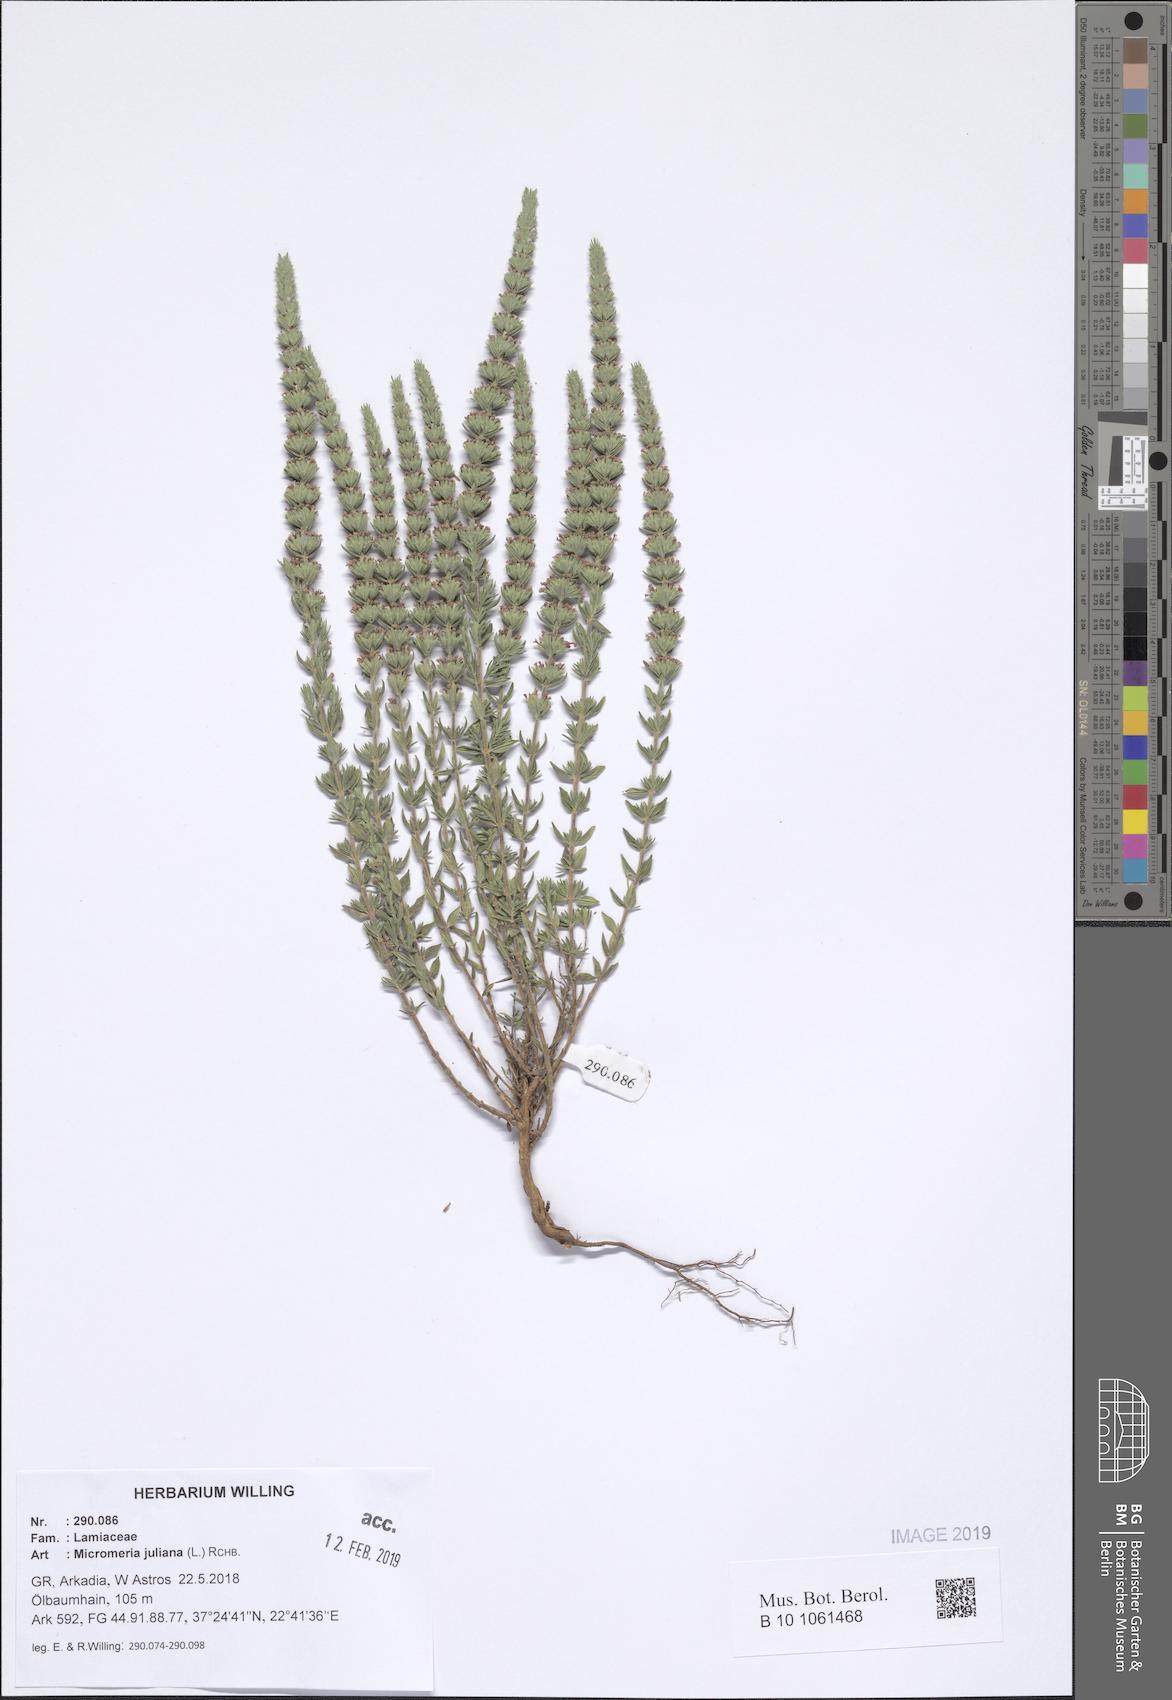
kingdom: Plantae
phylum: Tracheophyta
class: Magnoliopsida
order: Lamiales
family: Lamiaceae
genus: Micromeria
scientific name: Micromeria juliana
